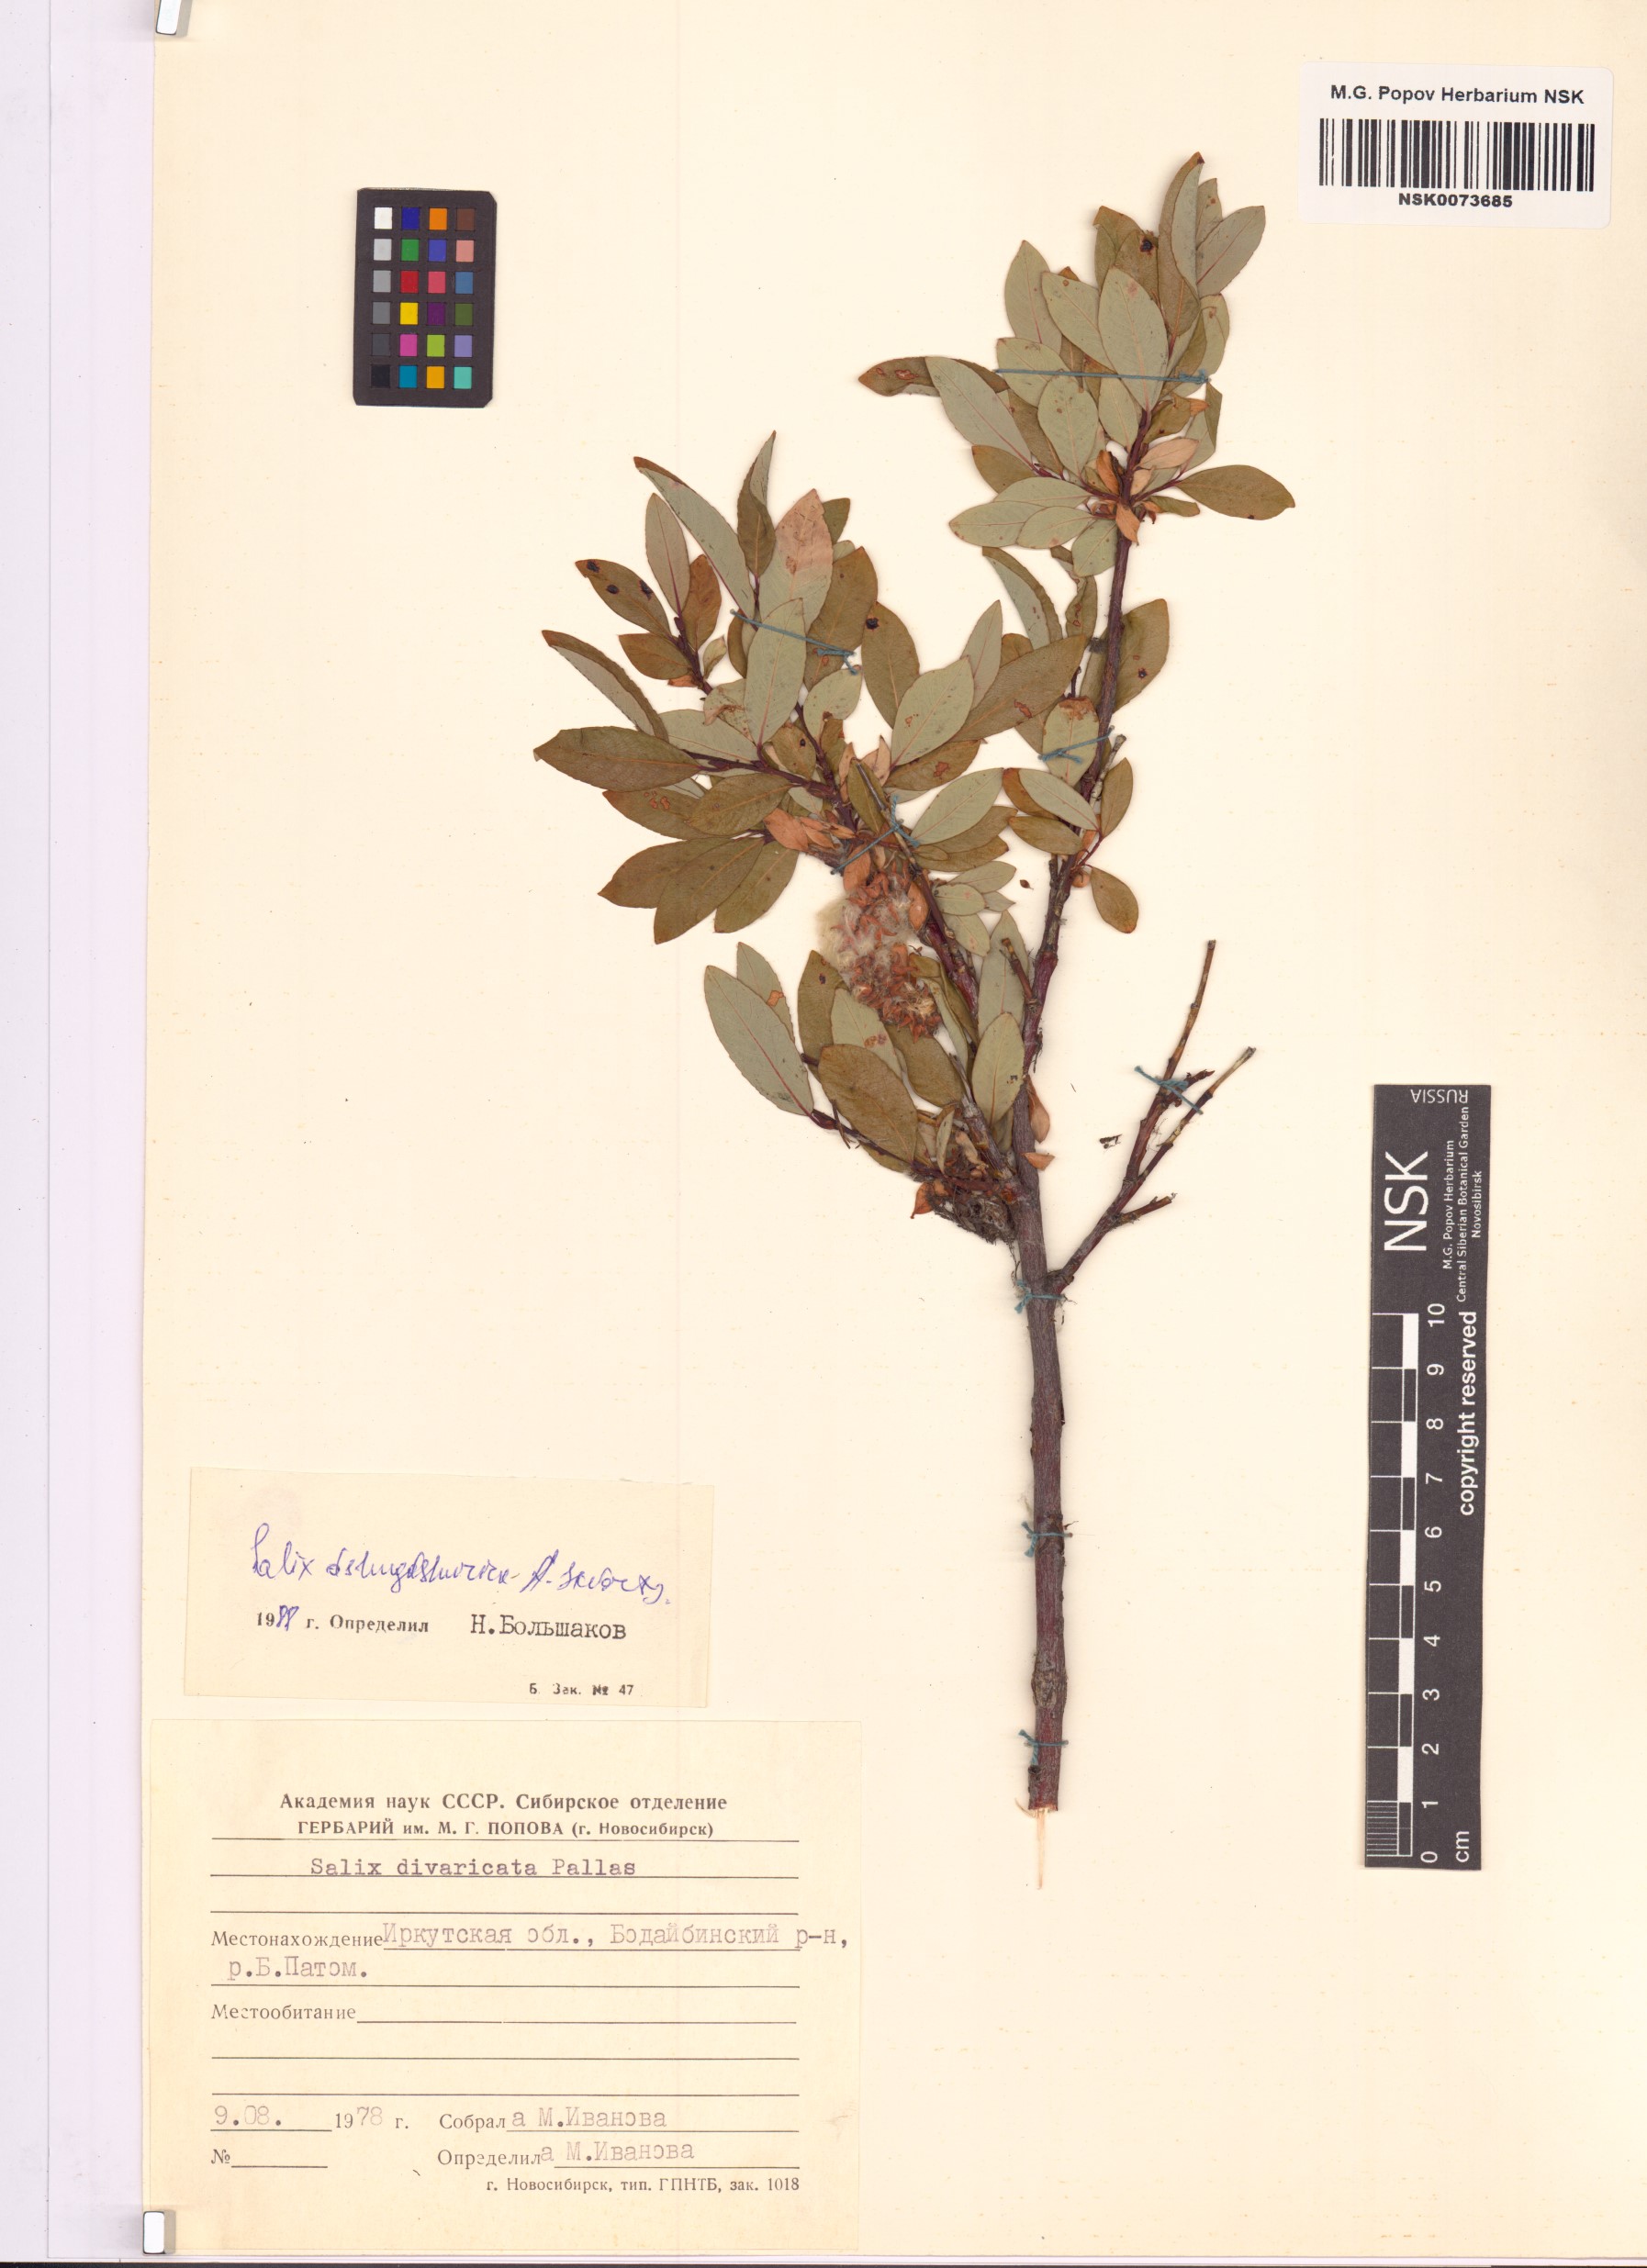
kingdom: Plantae
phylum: Tracheophyta
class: Magnoliopsida
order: Malpighiales
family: Salicaceae
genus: Salix
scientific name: Salix dshugdshurica
